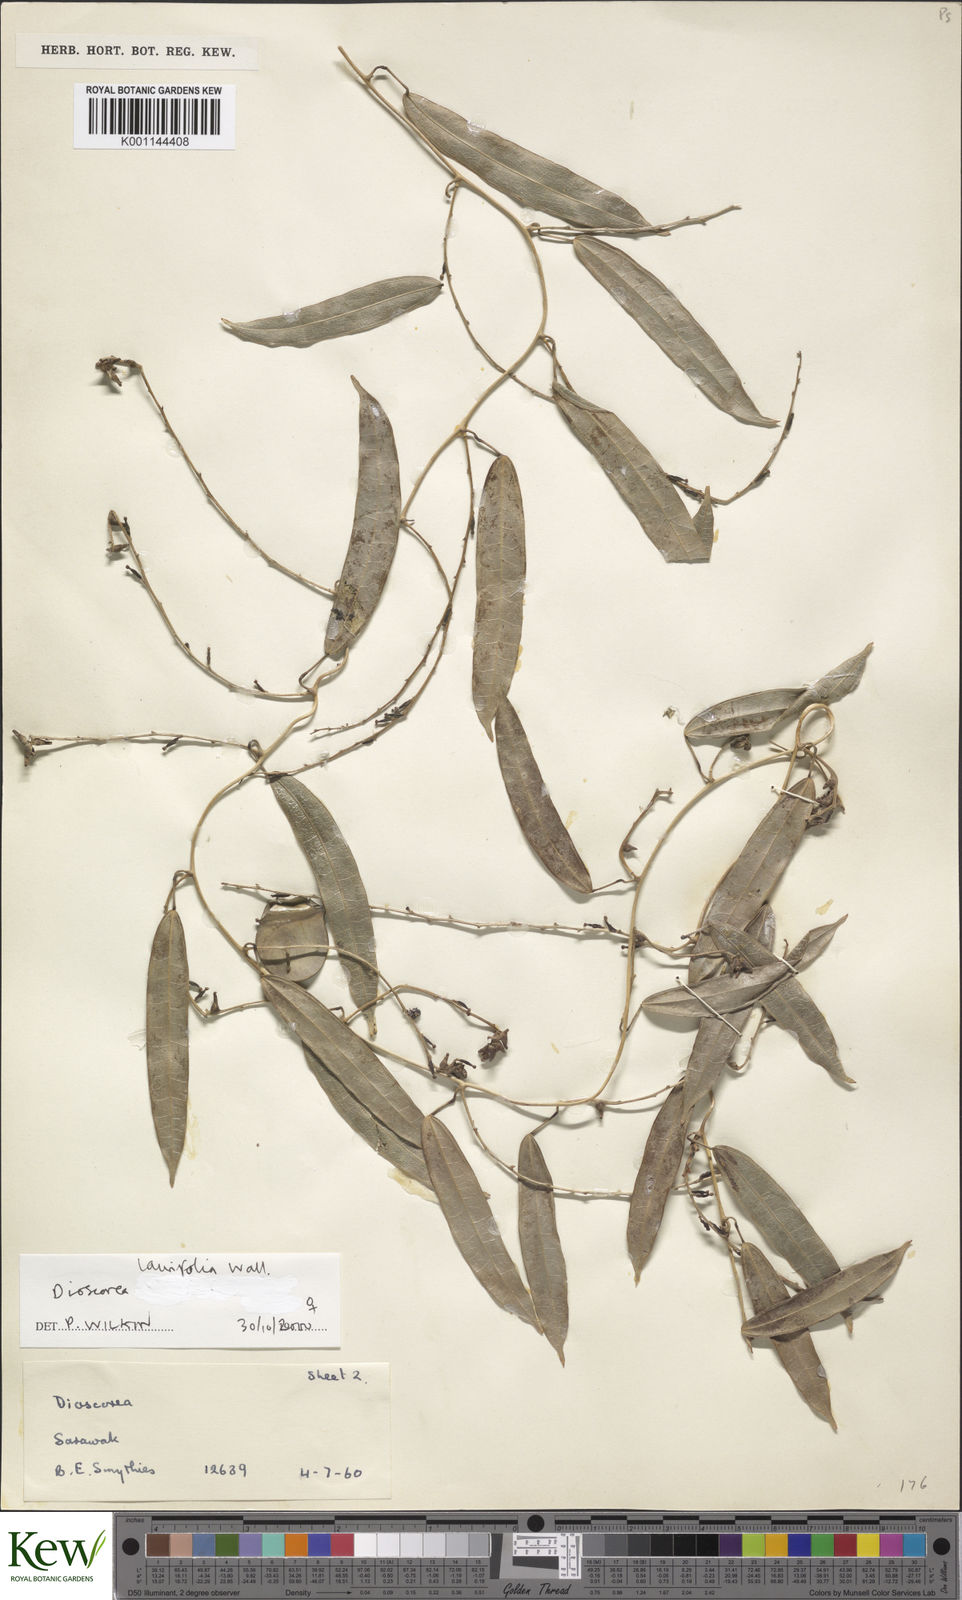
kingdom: Plantae
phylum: Tracheophyta
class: Liliopsida
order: Dioscoreales
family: Dioscoreaceae
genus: Dioscorea
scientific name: Dioscorea laurifolia
